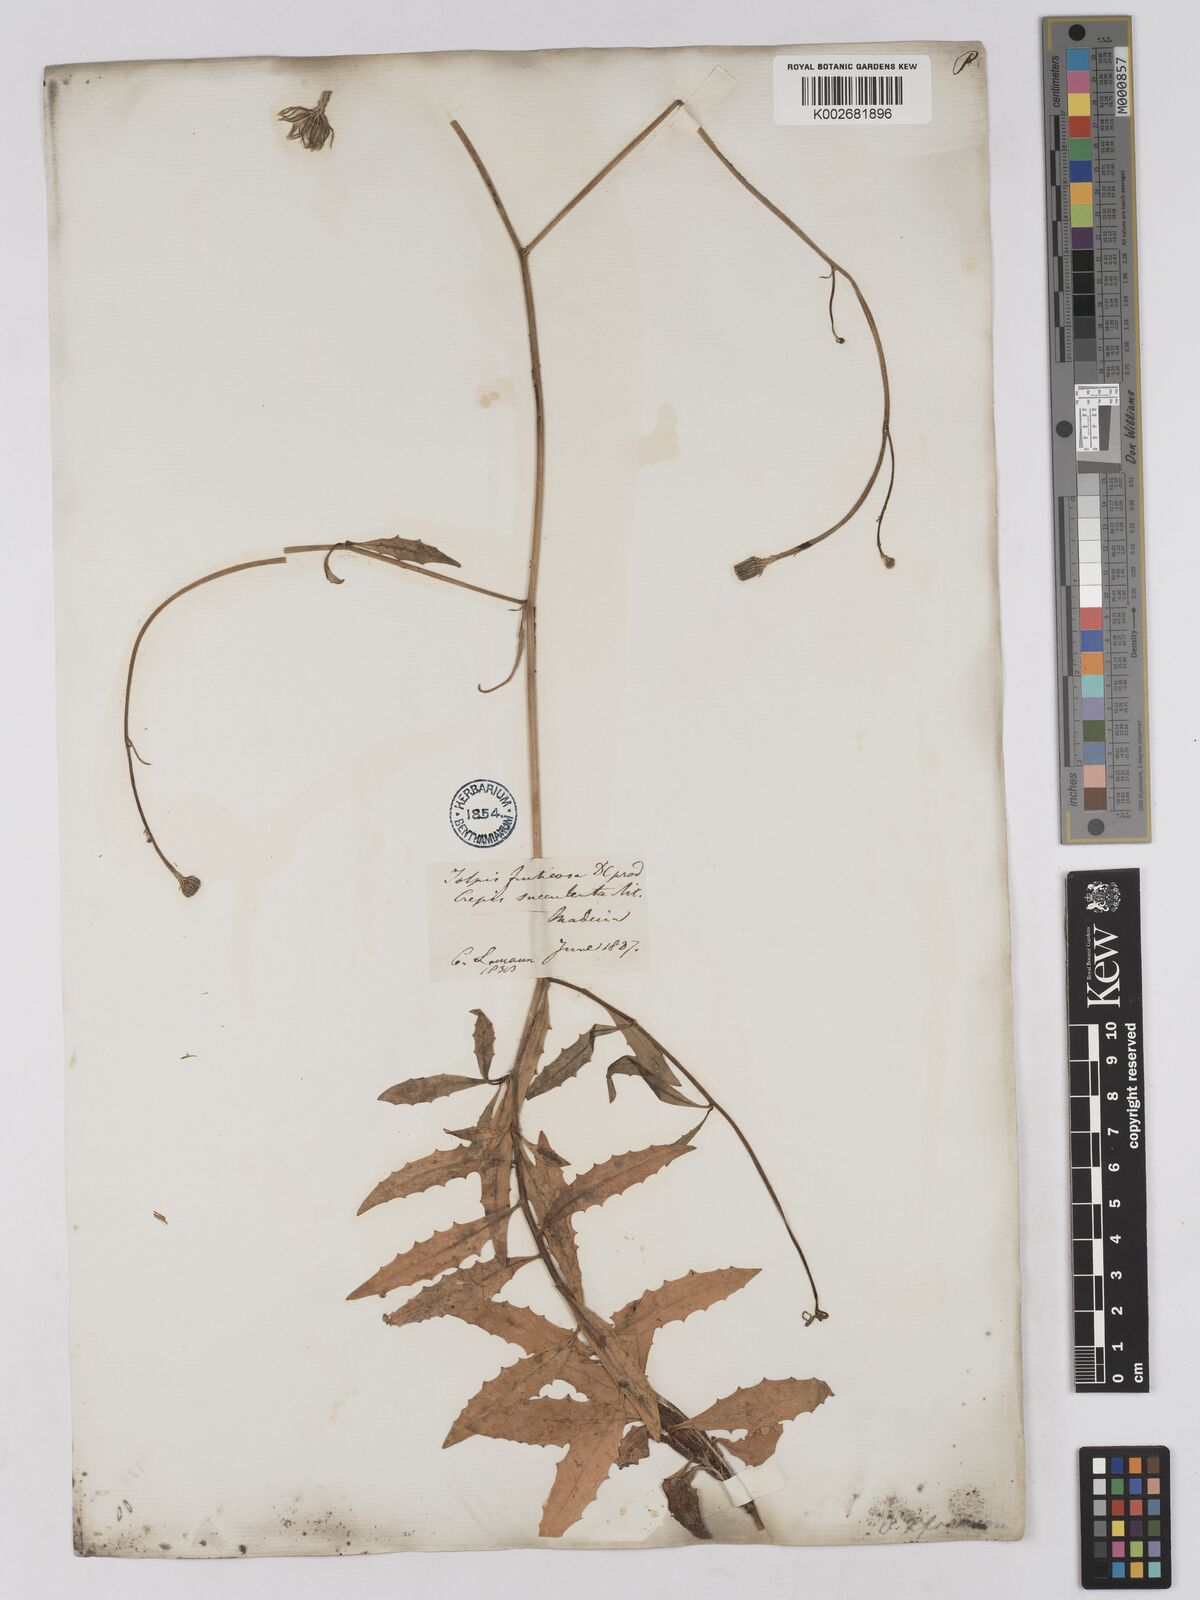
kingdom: Plantae
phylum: Tracheophyta
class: Magnoliopsida
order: Asterales
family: Asteraceae
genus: Tolpis
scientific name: Tolpis succulenta
